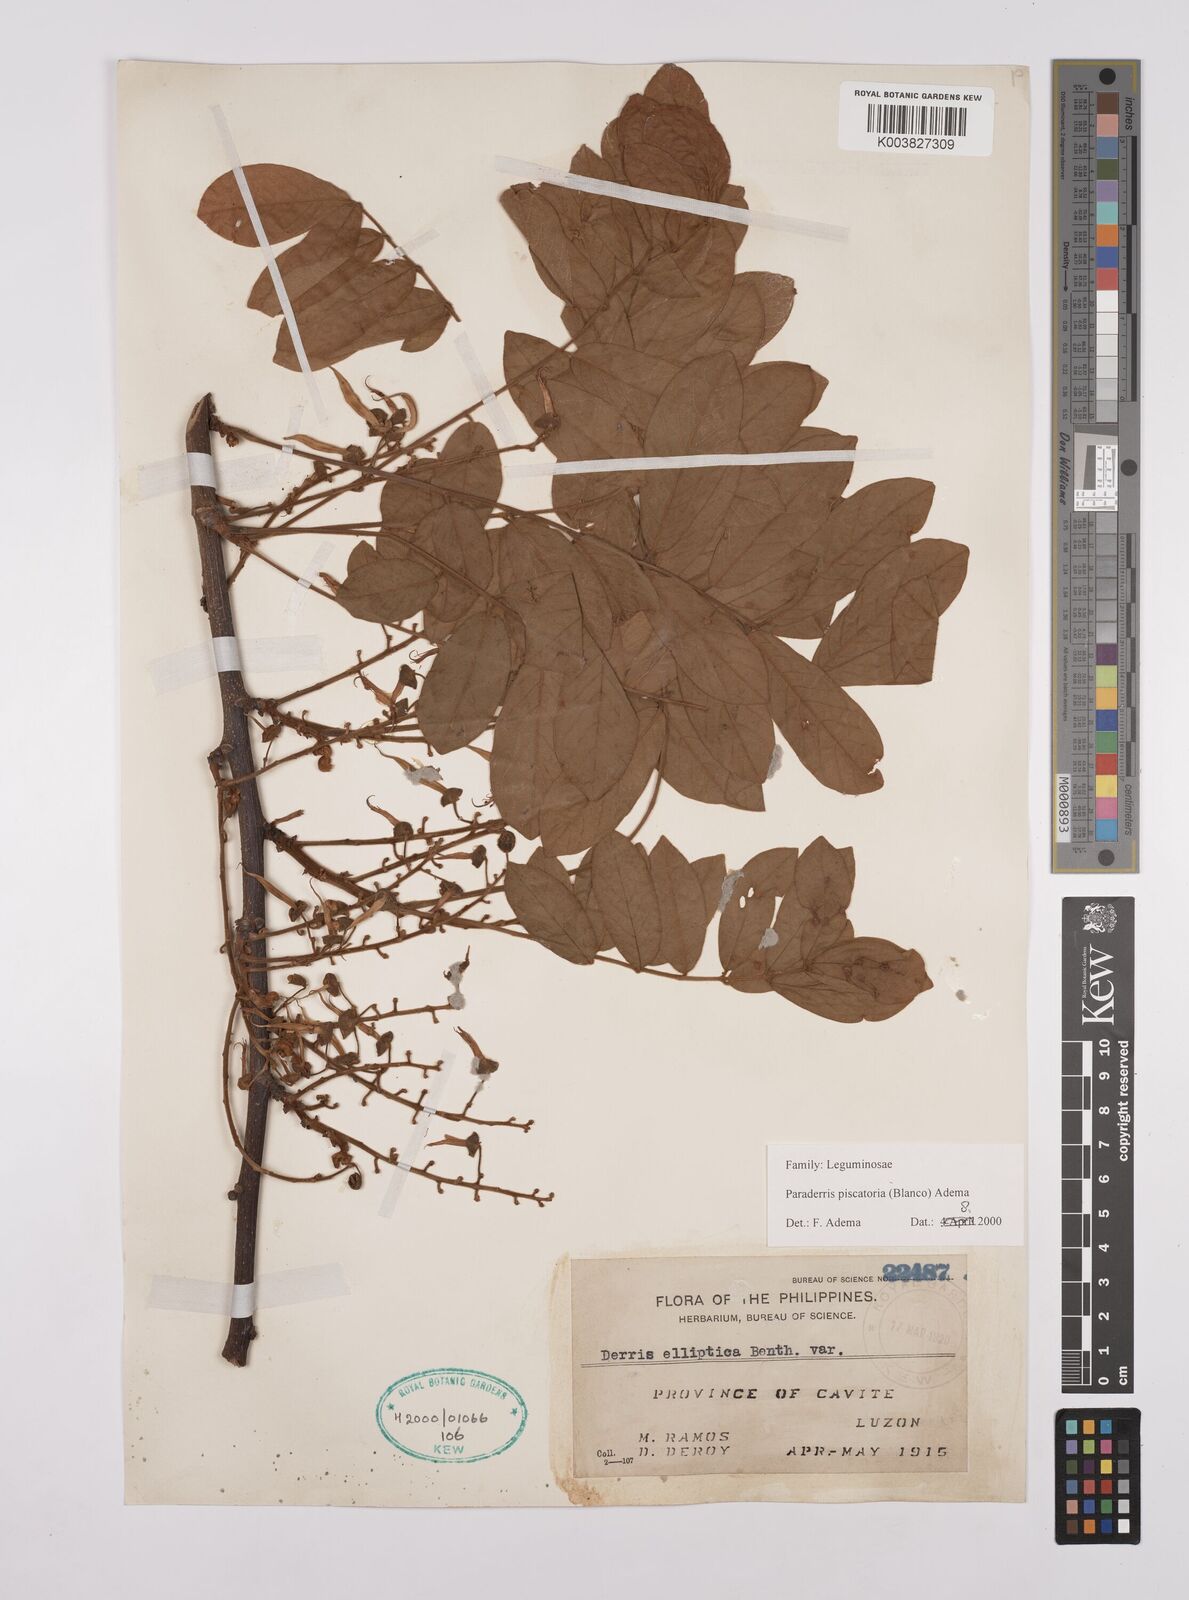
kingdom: Plantae
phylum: Tracheophyta
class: Magnoliopsida
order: Fabales
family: Fabaceae
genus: Derris
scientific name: Derris piscatoria
